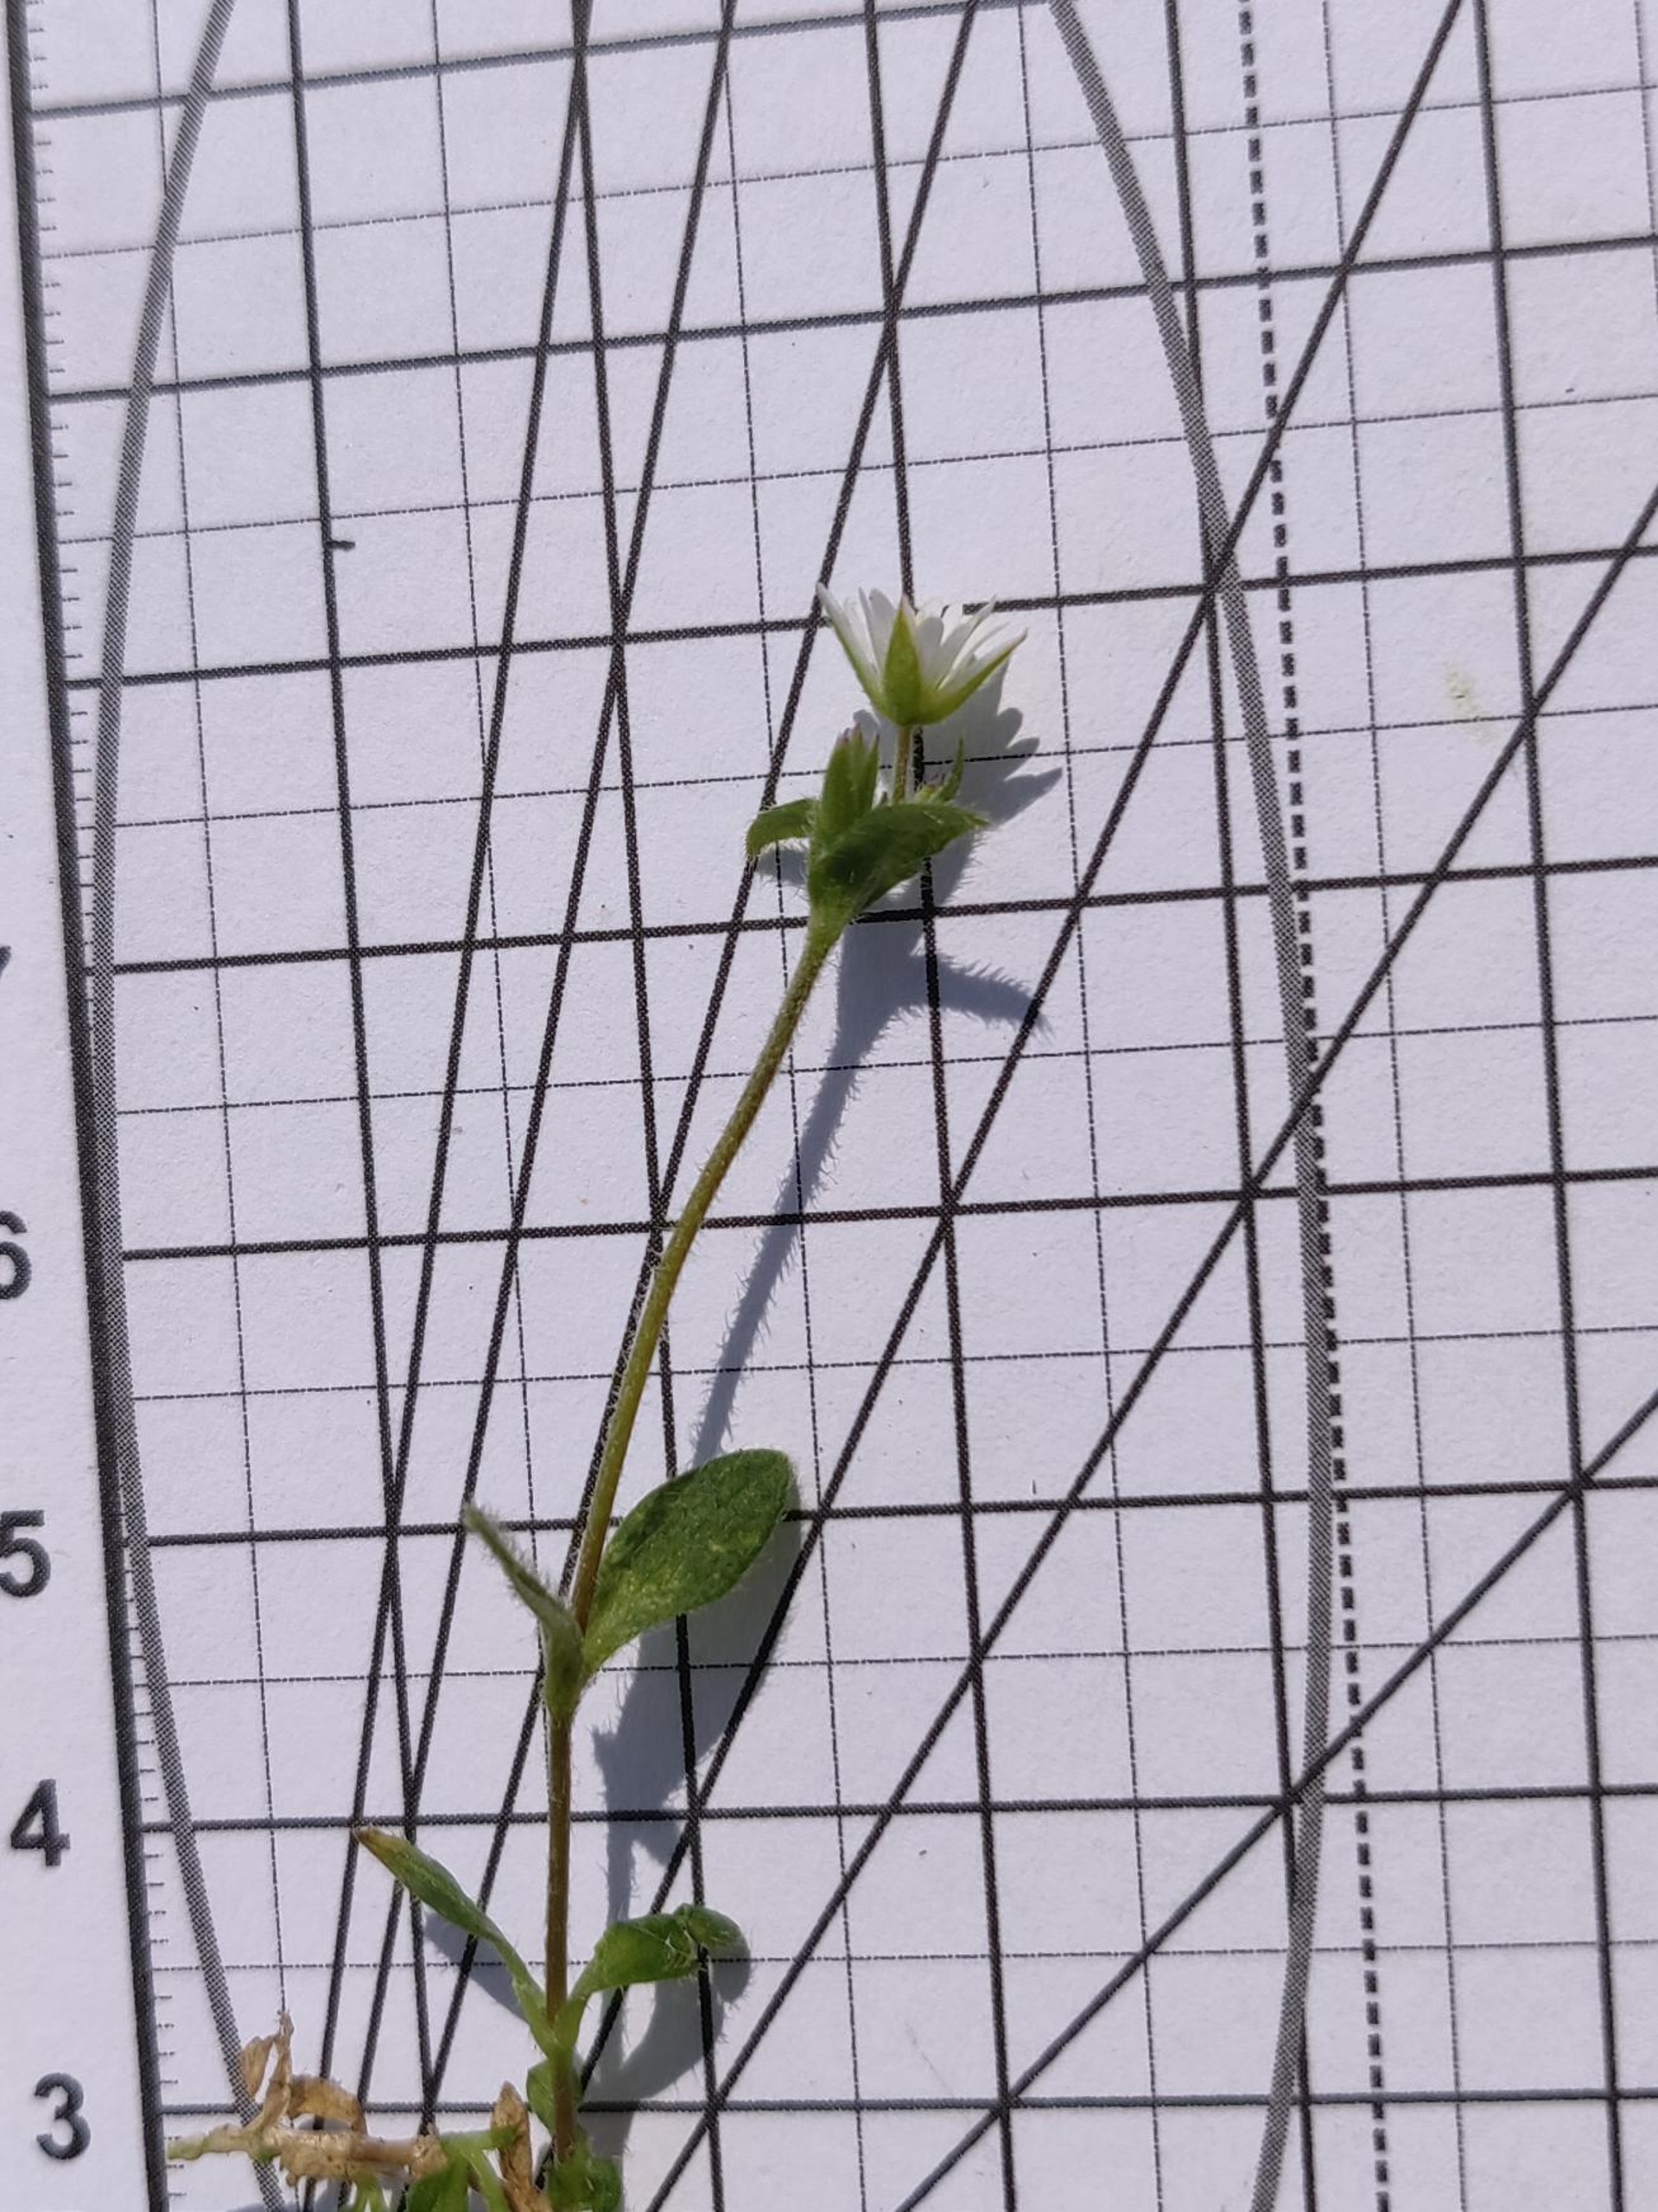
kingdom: Plantae
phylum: Tracheophyta
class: Magnoliopsida
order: Caryophyllales
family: Caryophyllaceae
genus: Cerastium
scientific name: Cerastium fontanum
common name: Almindelig hønsetarm
